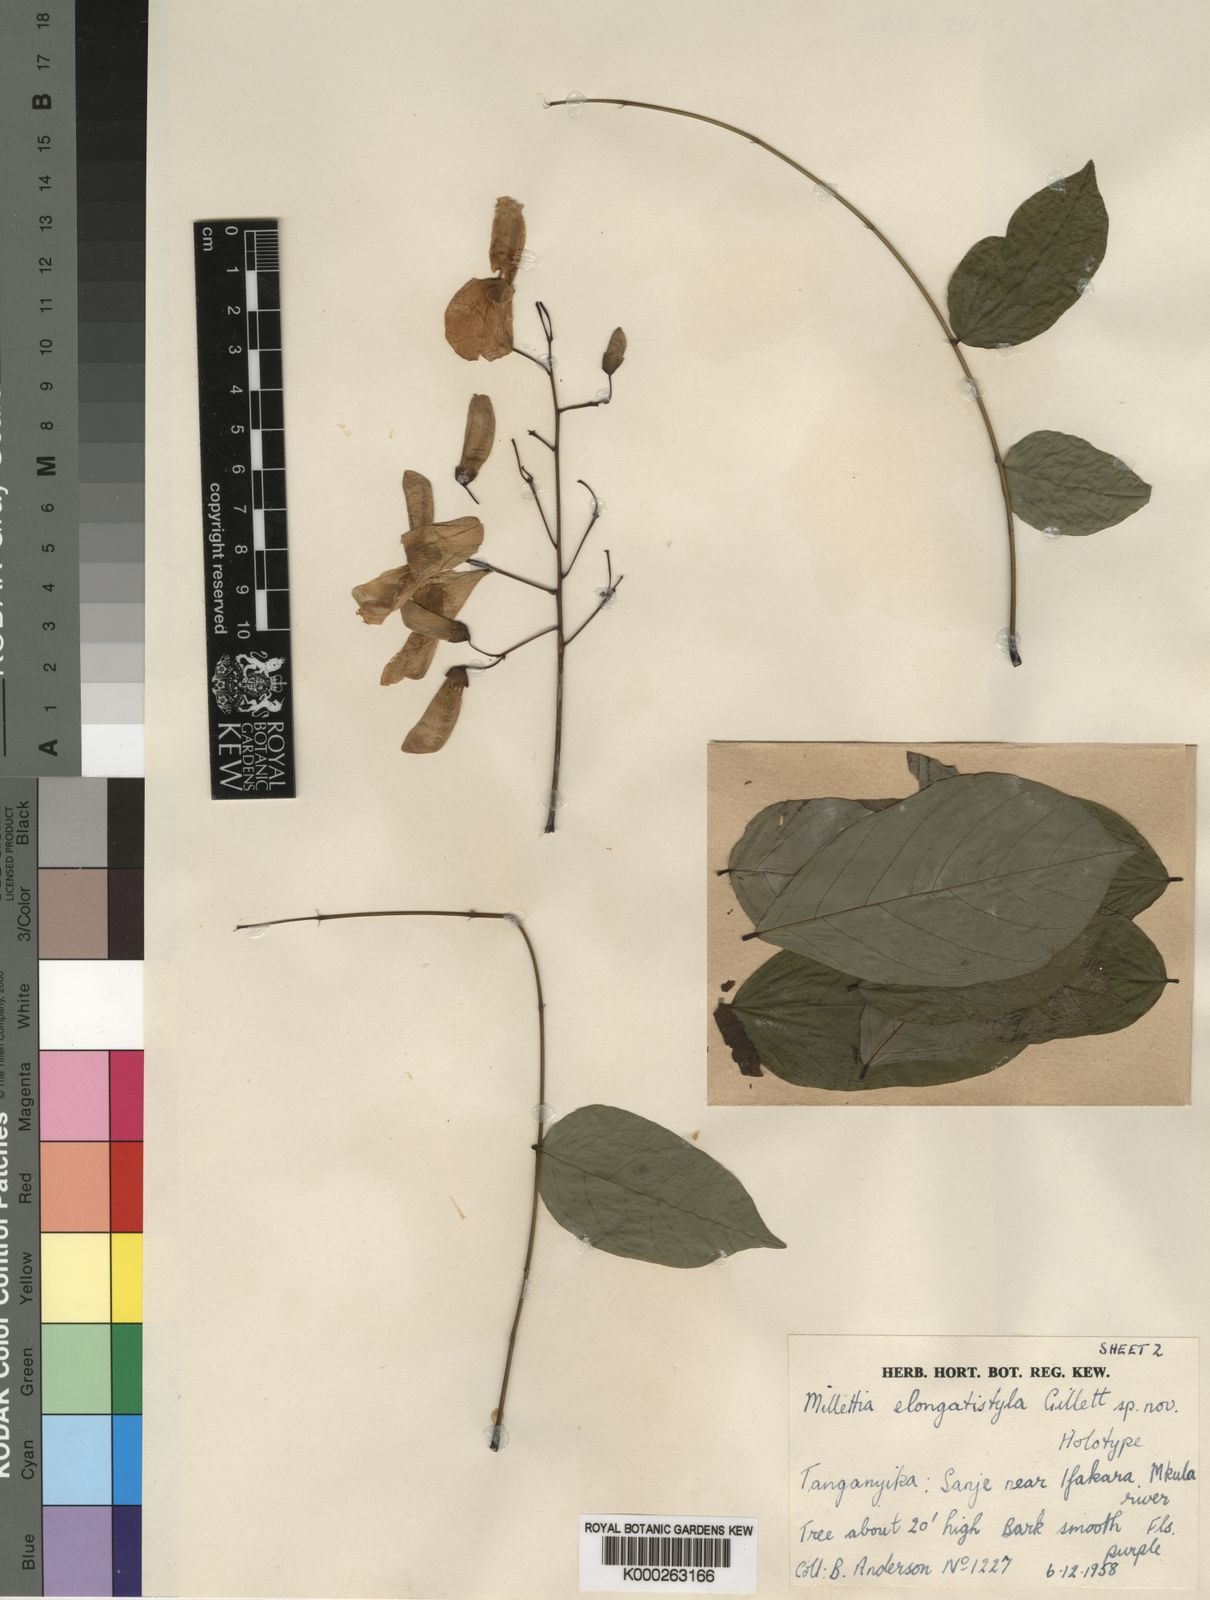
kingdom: Plantae
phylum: Tracheophyta
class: Magnoliopsida
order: Fabales
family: Fabaceae
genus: Millettia
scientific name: Millettia elongatistyla
